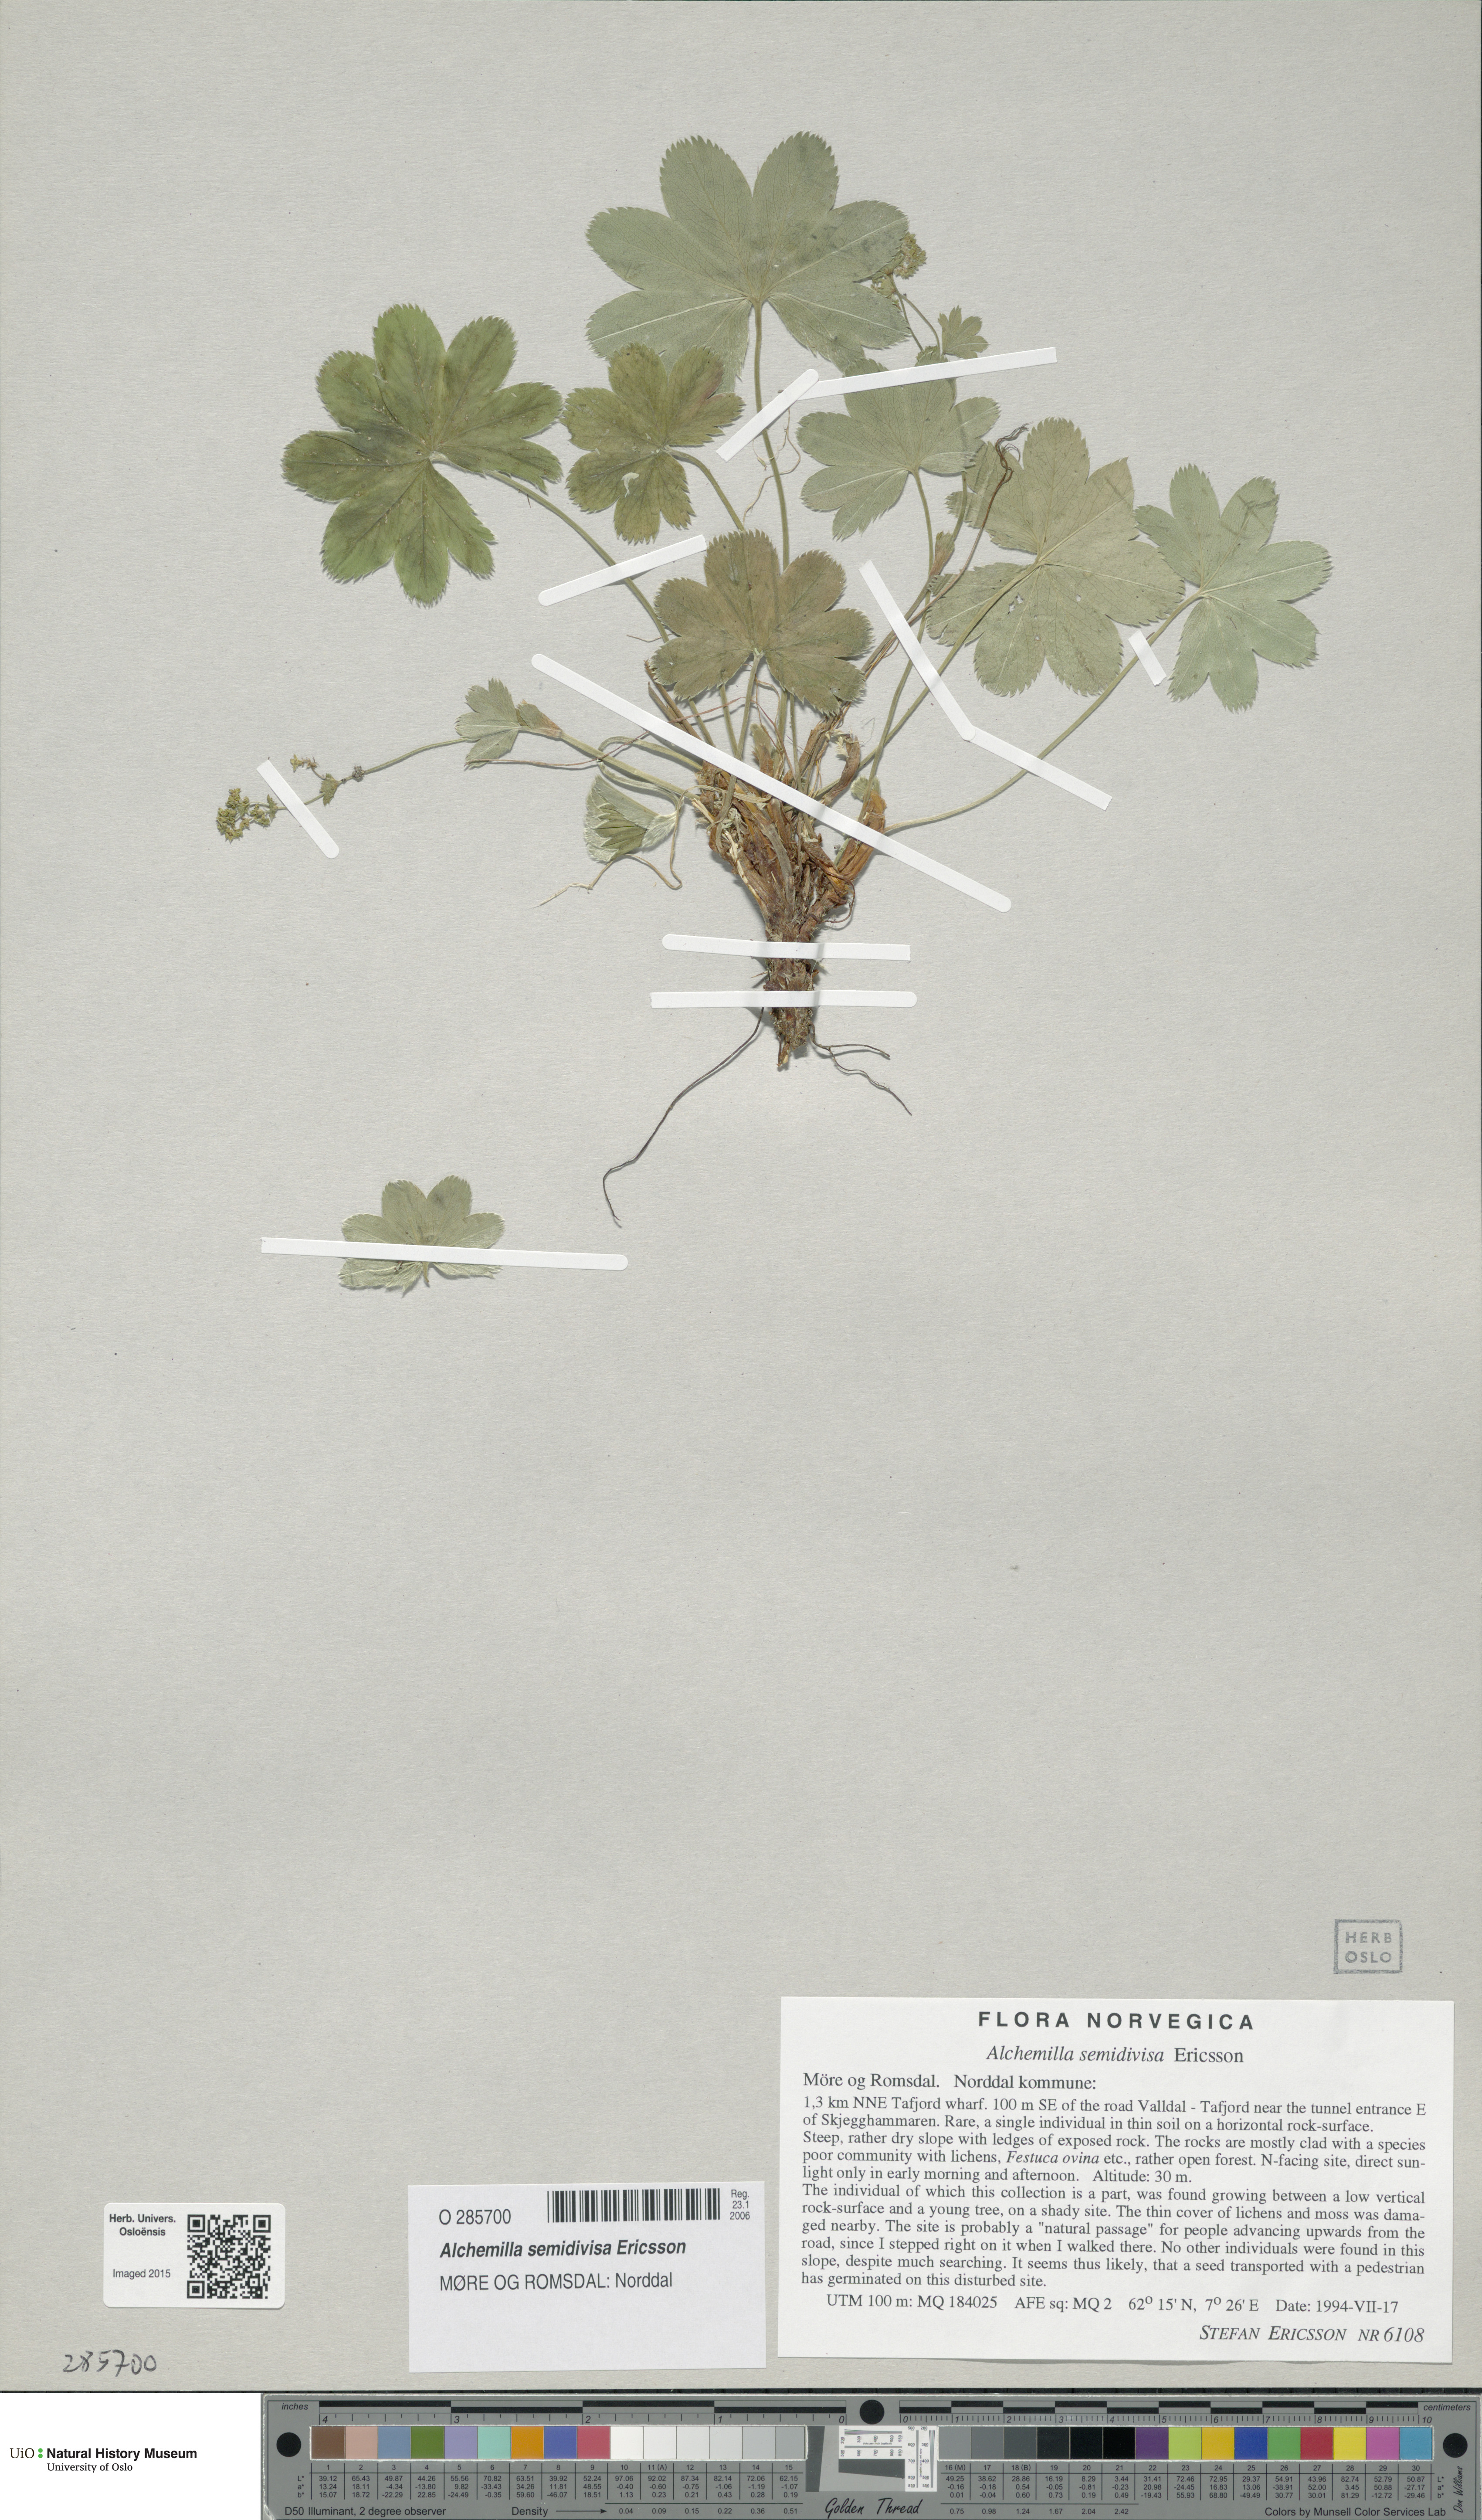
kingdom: Plantae
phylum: Tracheophyta
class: Magnoliopsida
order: Rosales
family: Rosaceae
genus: Alchemilla
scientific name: Alchemilla semidivisa
